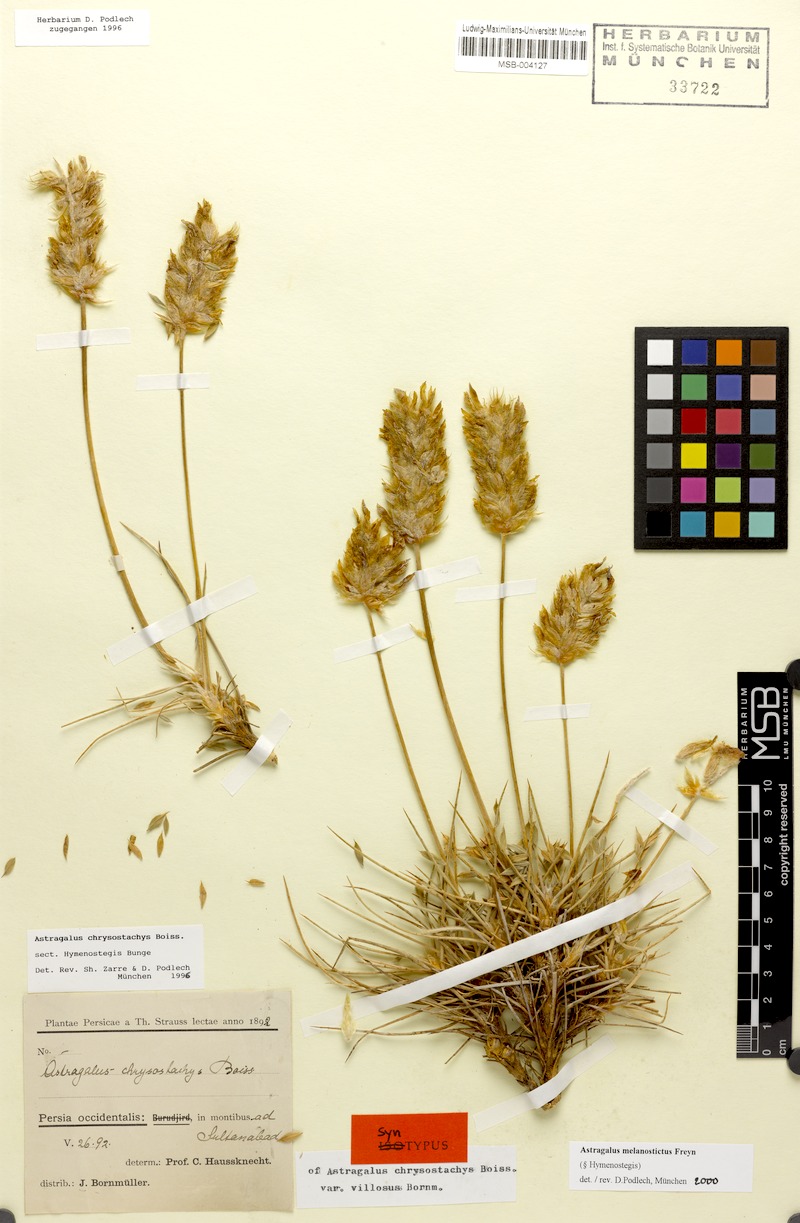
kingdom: Plantae
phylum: Tracheophyta
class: Magnoliopsida
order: Fabales
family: Fabaceae
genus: Astragalus
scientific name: Astragalus melanostictus
